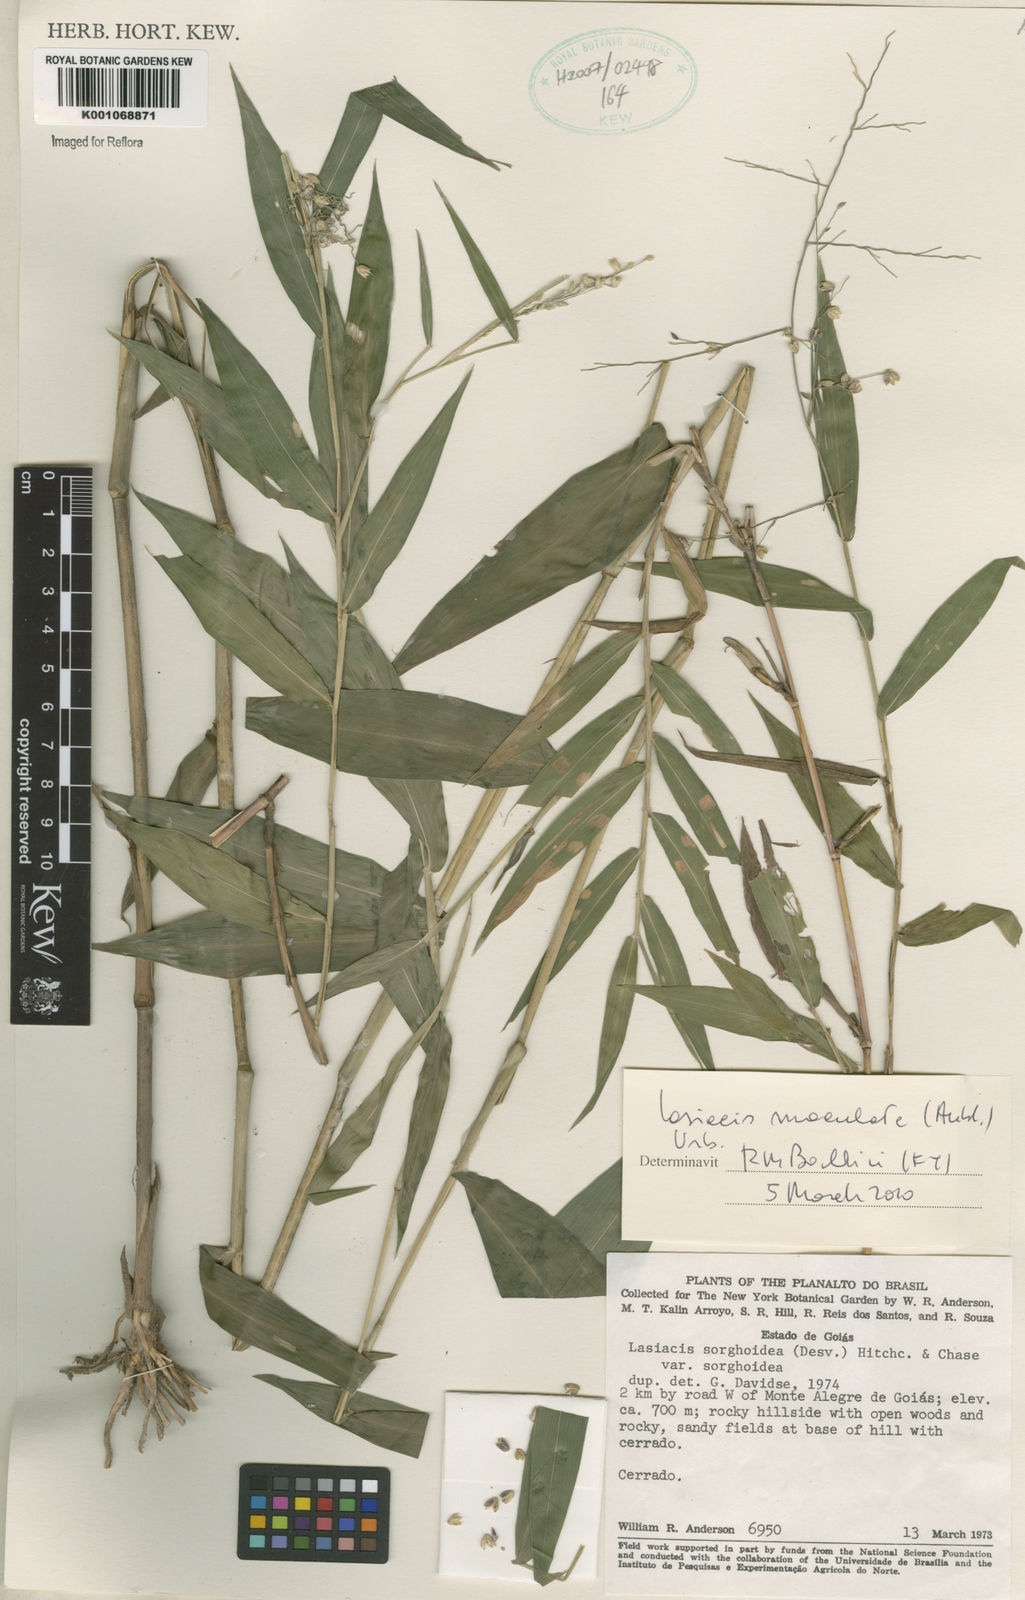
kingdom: Plantae
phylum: Tracheophyta
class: Liliopsida
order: Poales
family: Poaceae
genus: Lasiacis
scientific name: Lasiacis maculata
